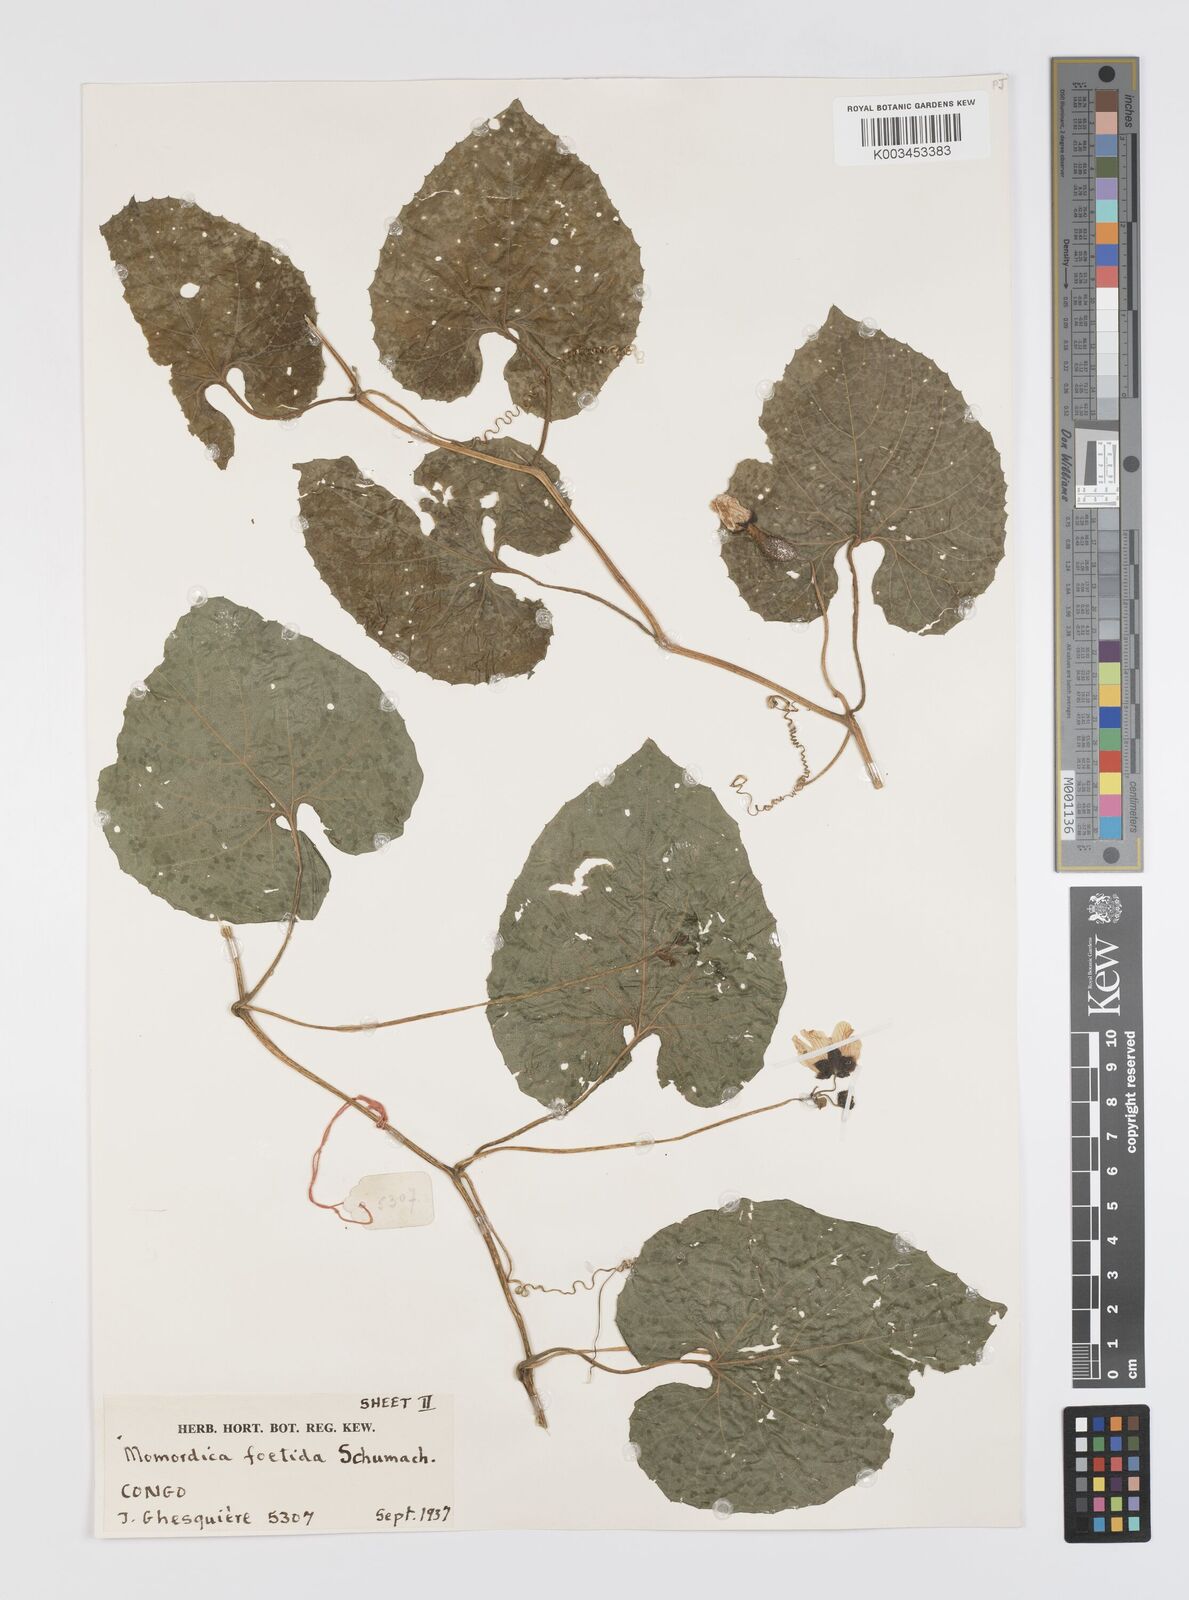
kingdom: Plantae
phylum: Tracheophyta
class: Magnoliopsida
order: Cucurbitales
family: Cucurbitaceae
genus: Momordica
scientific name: Momordica foetida
